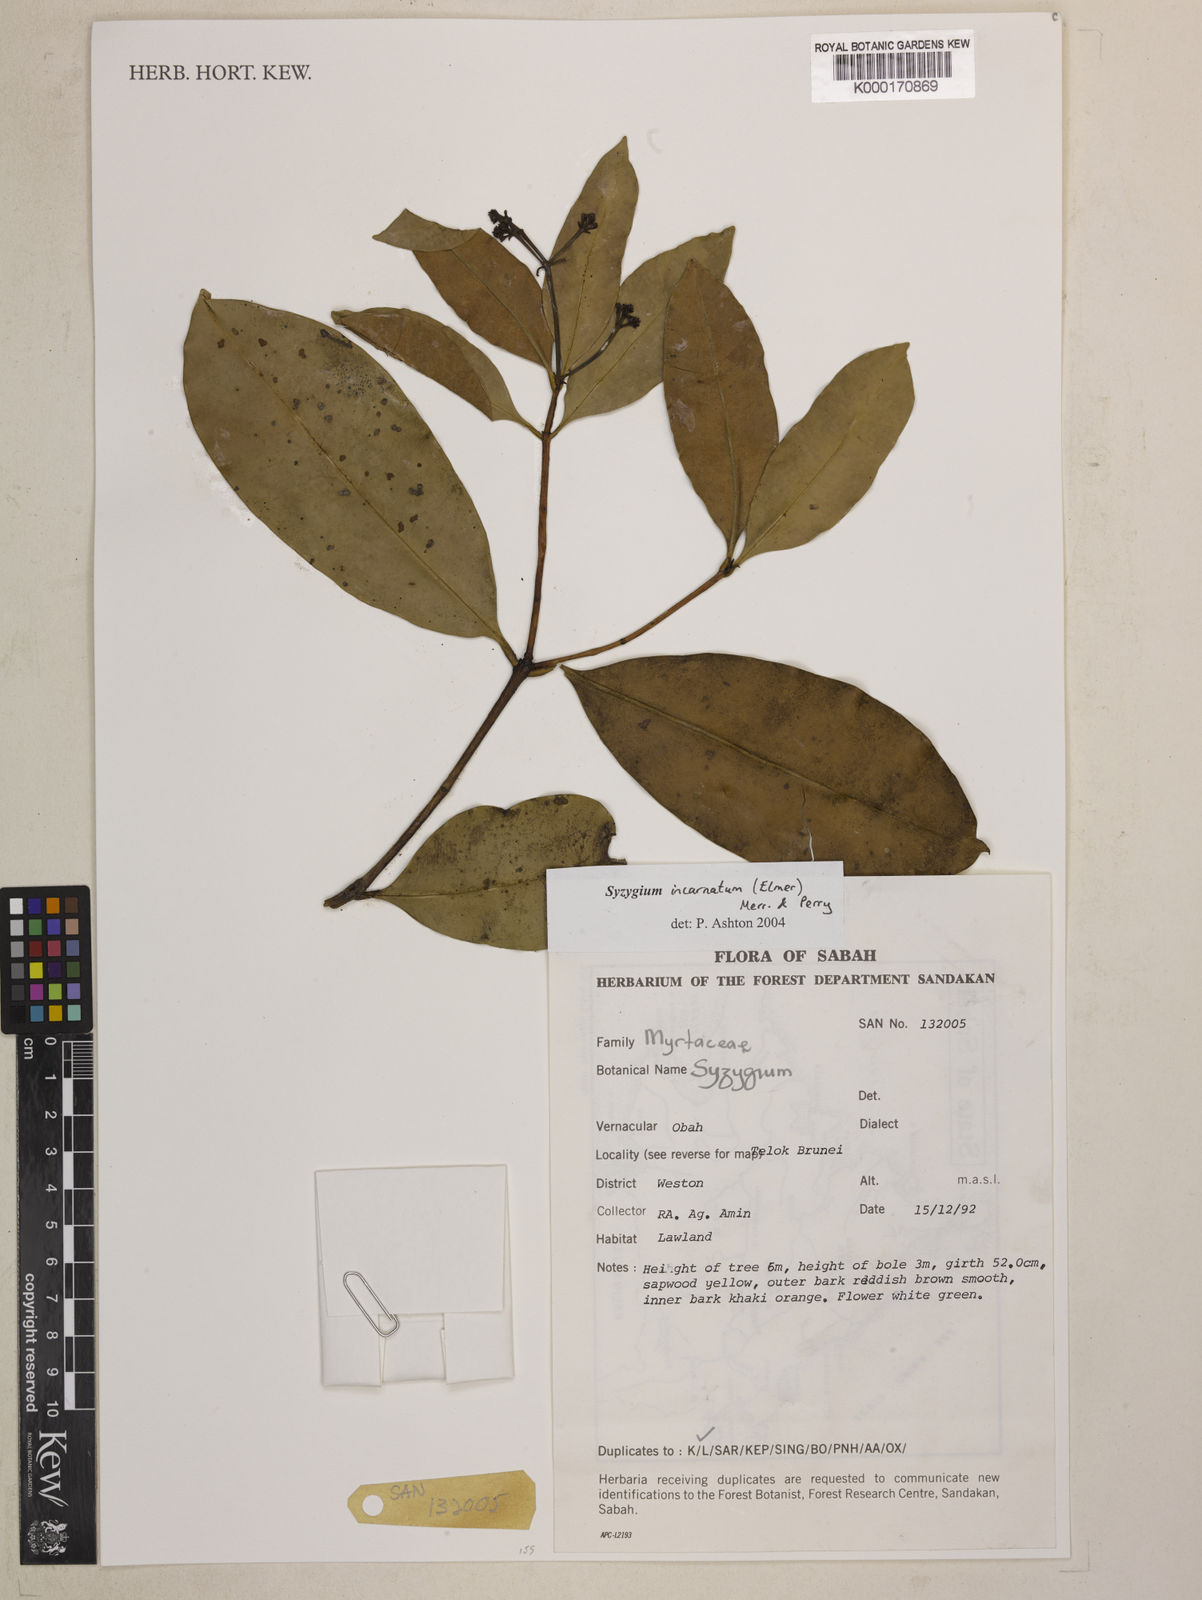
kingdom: Plantae
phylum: Tracheophyta
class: Magnoliopsida
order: Myrtales
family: Myrtaceae
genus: Syzygium
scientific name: Syzygium incarnatum
